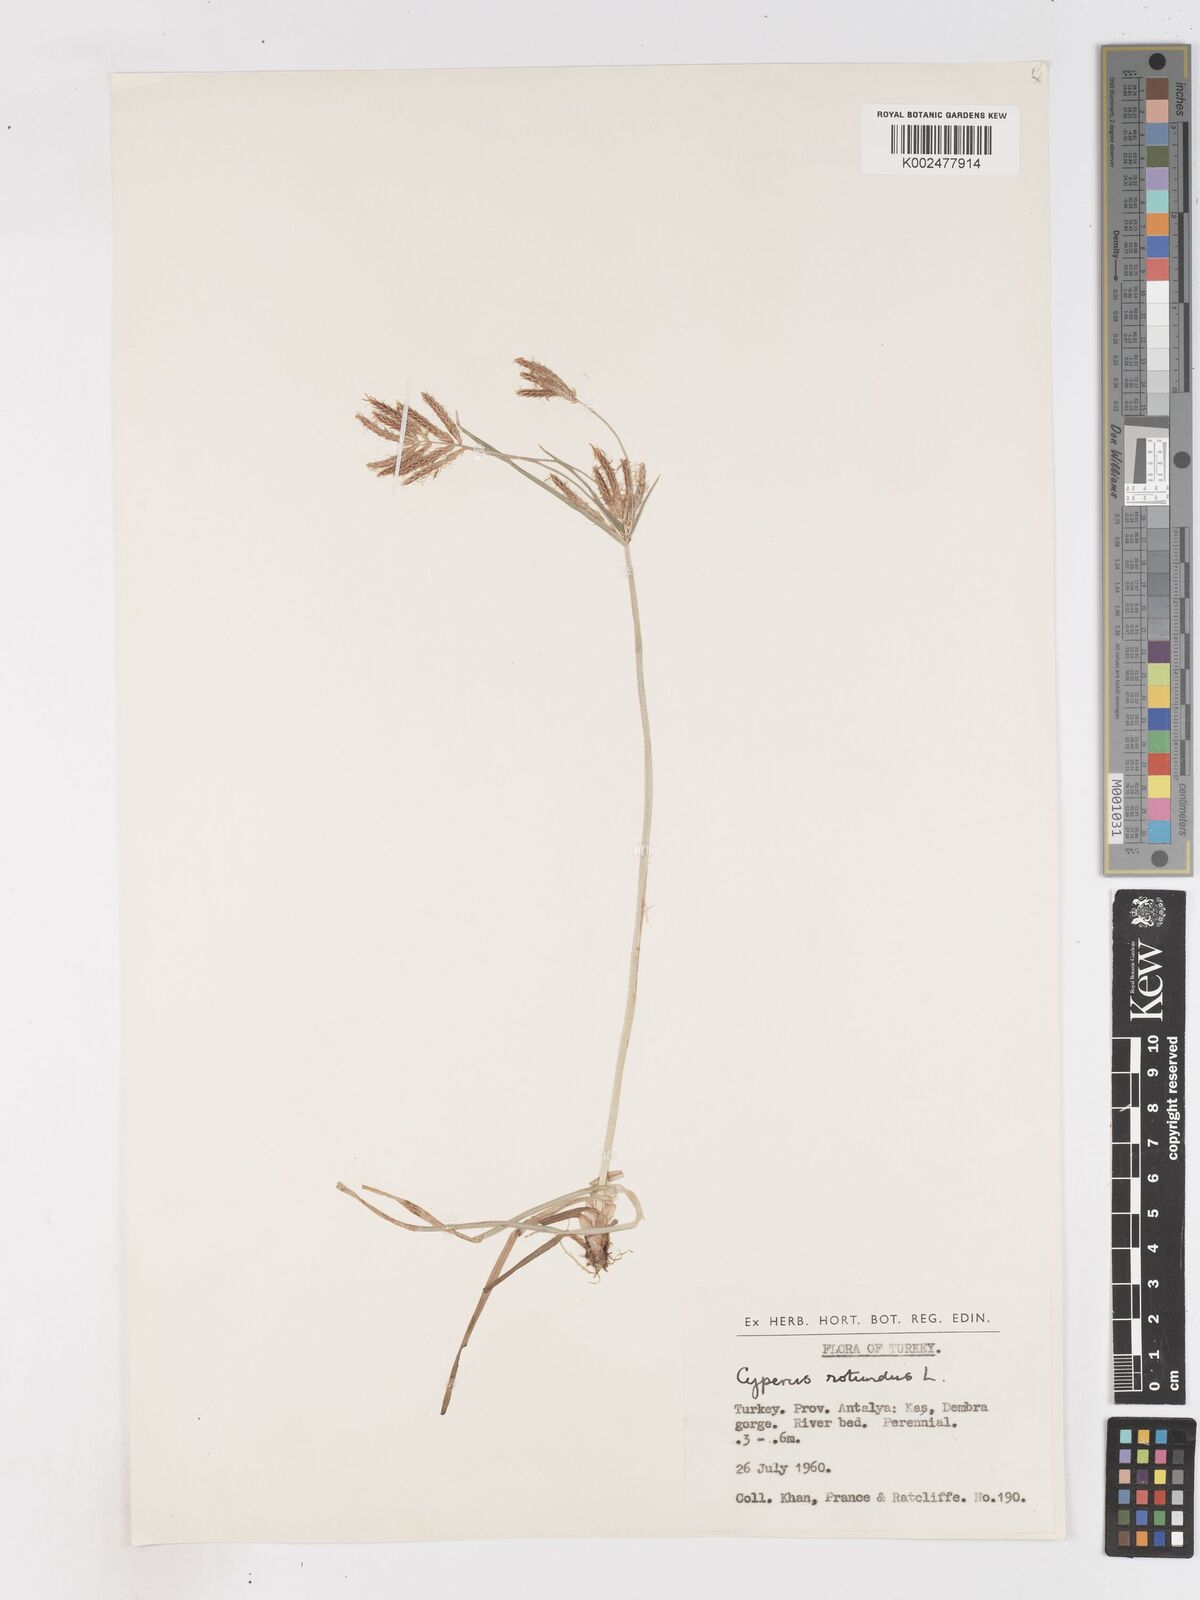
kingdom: Plantae
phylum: Tracheophyta
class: Liliopsida
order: Poales
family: Cyperaceae
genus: Cyperus
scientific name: Cyperus rotundus
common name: Nutgrass
